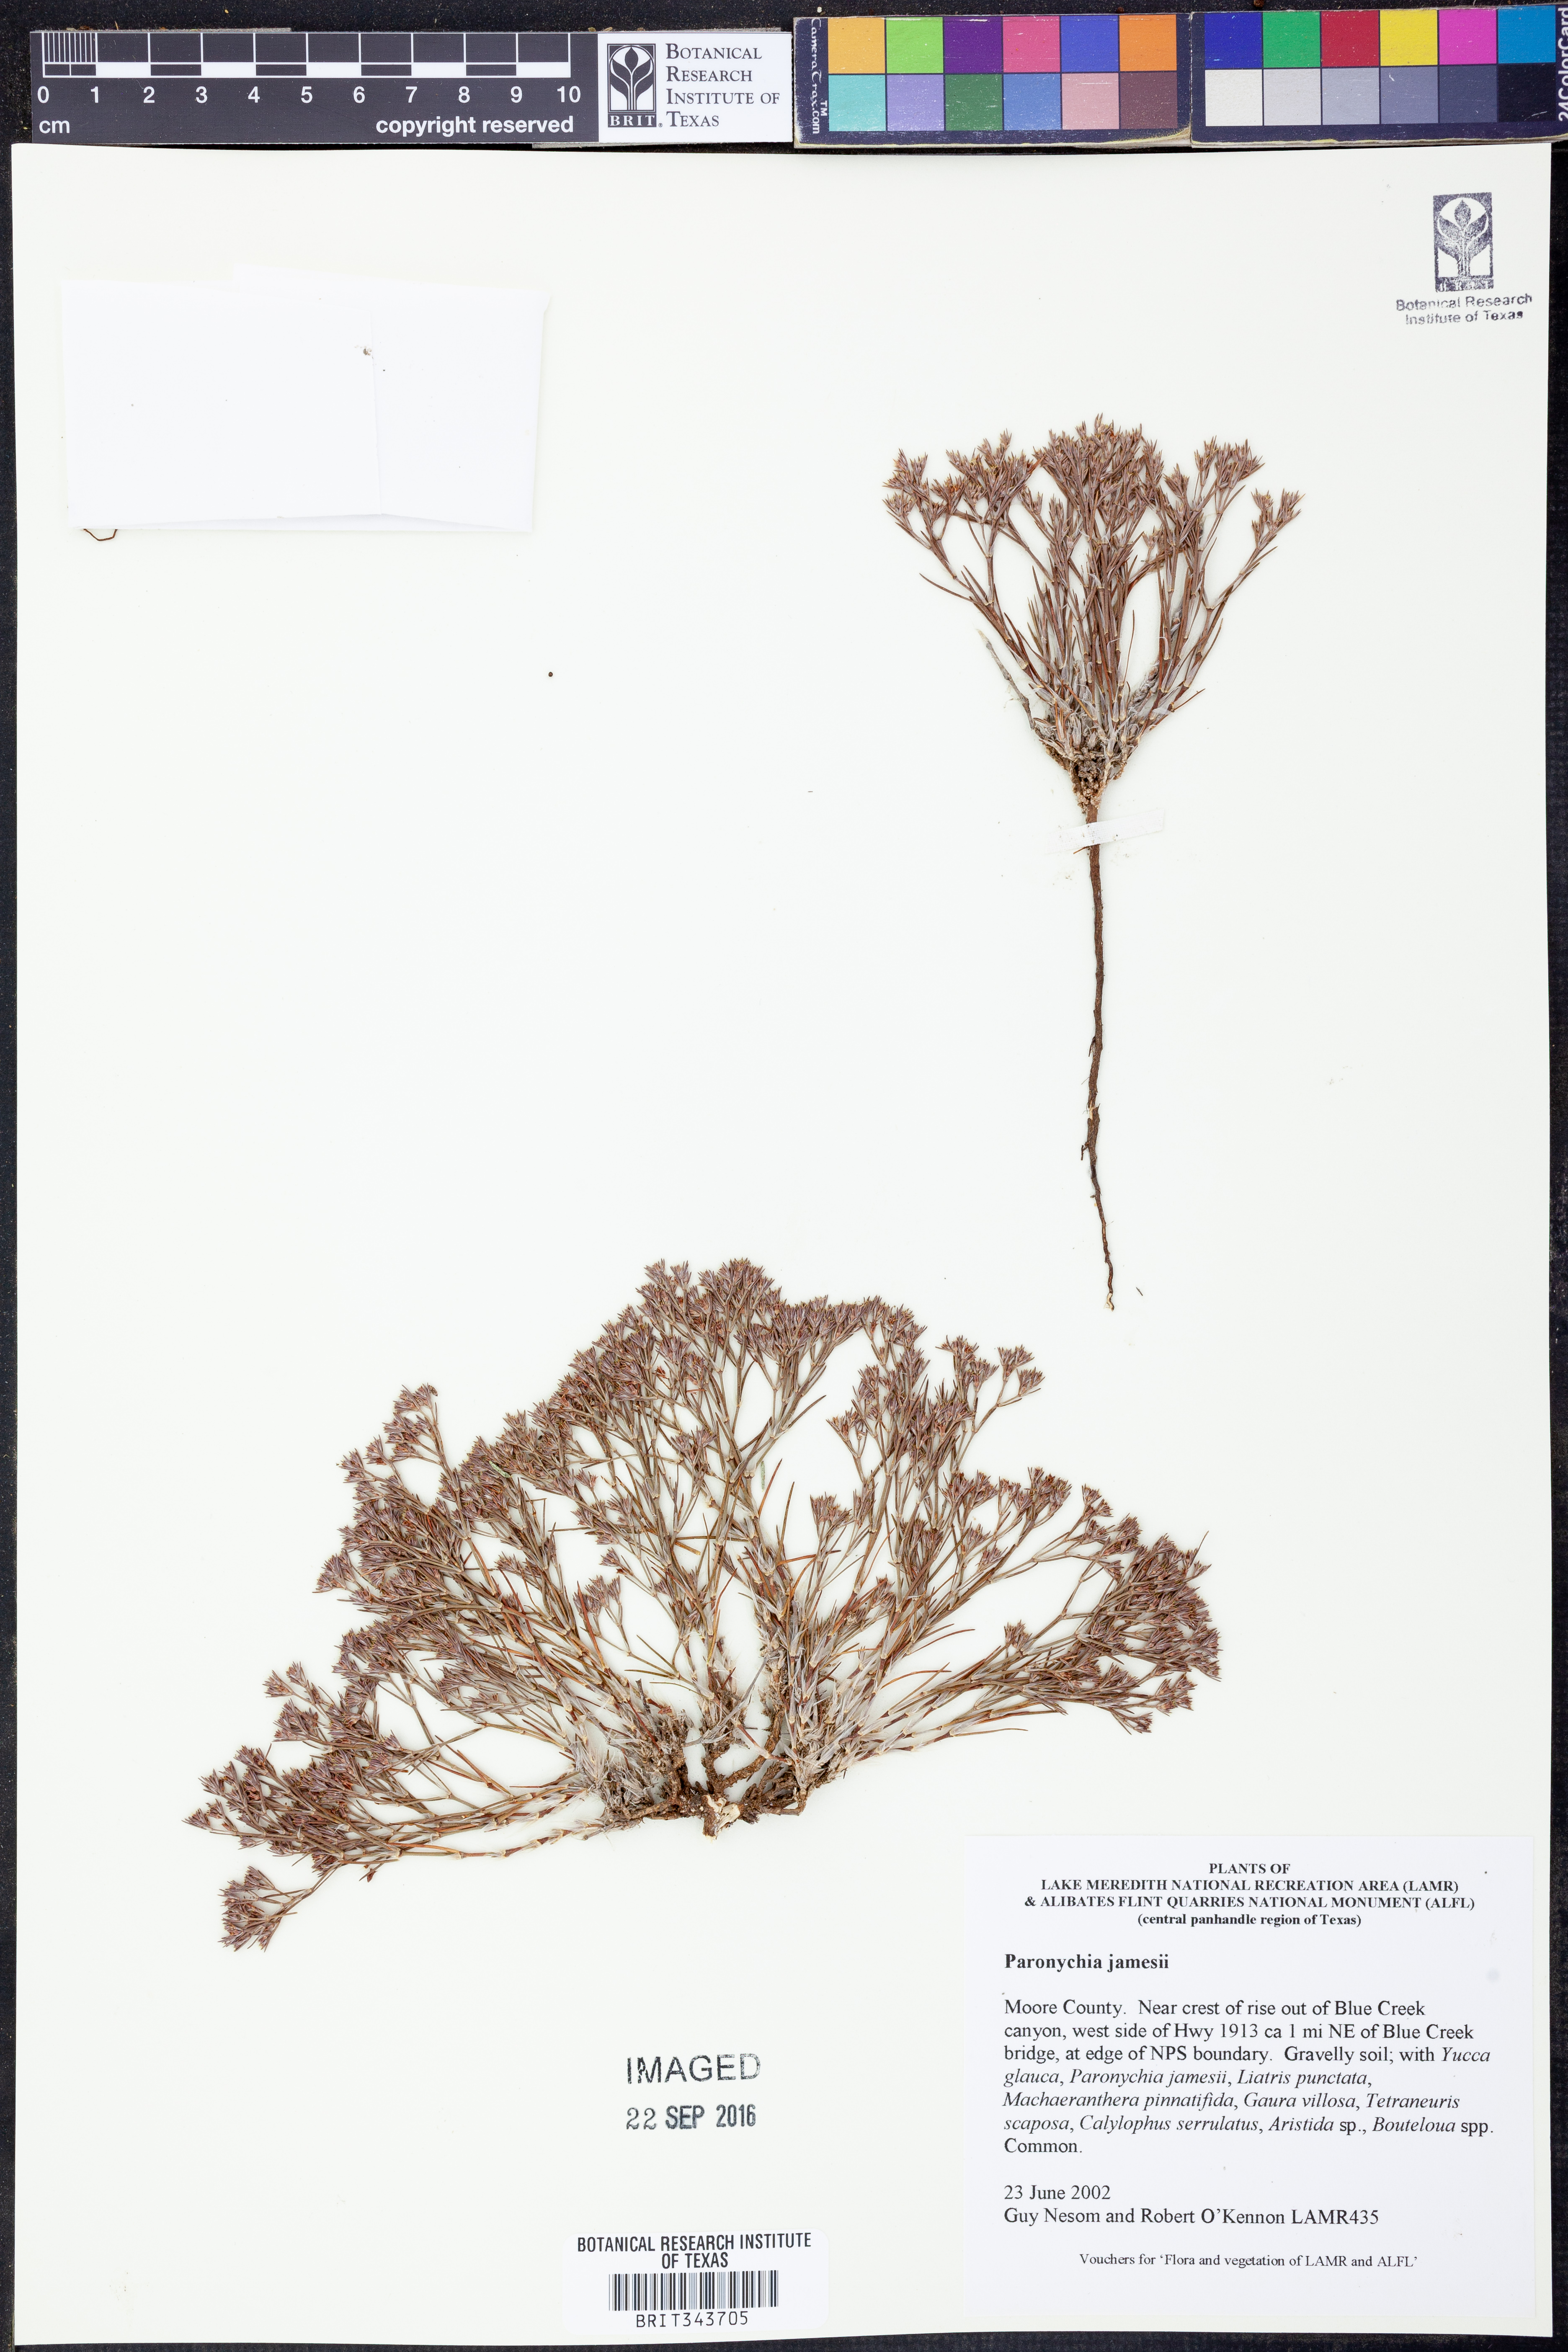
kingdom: Plantae
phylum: Tracheophyta
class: Magnoliopsida
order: Caryophyllales
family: Caryophyllaceae
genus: Paronychia
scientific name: Paronychia jamesii
